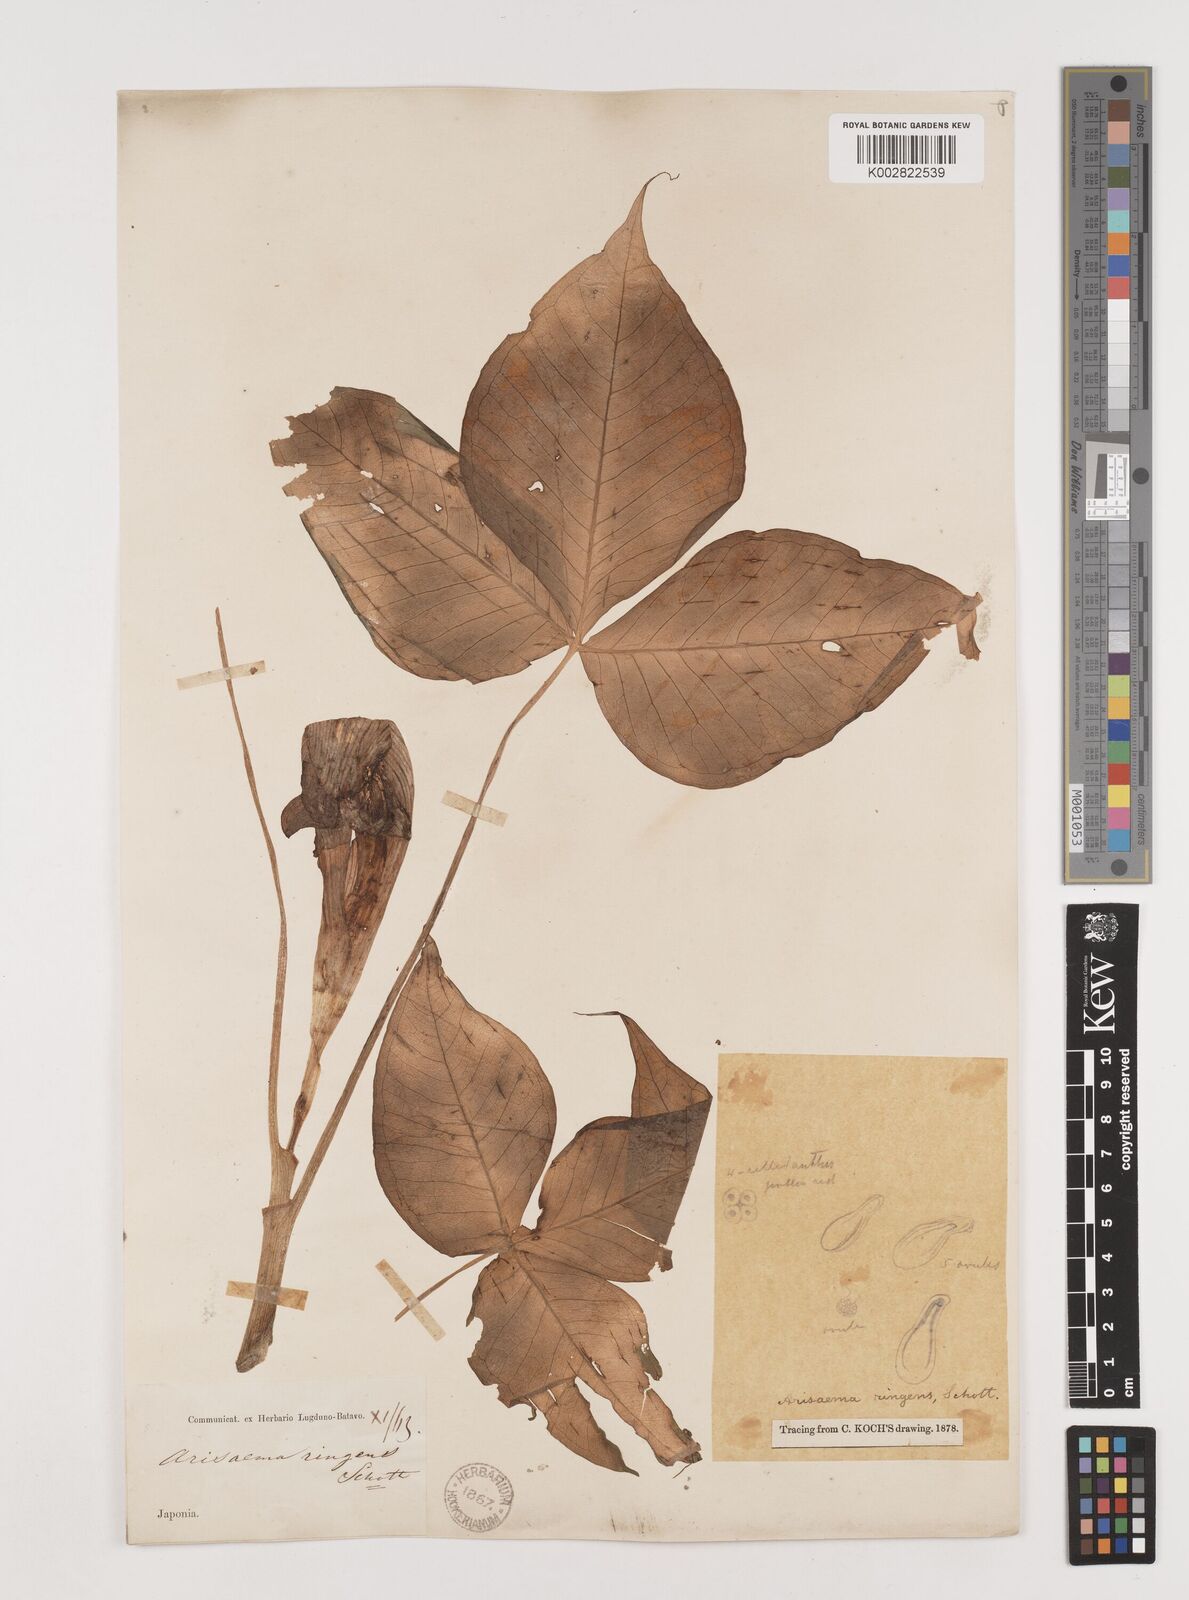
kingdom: Plantae
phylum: Tracheophyta
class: Liliopsida
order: Alismatales
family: Araceae
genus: Arisaema
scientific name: Arisaema ringens
